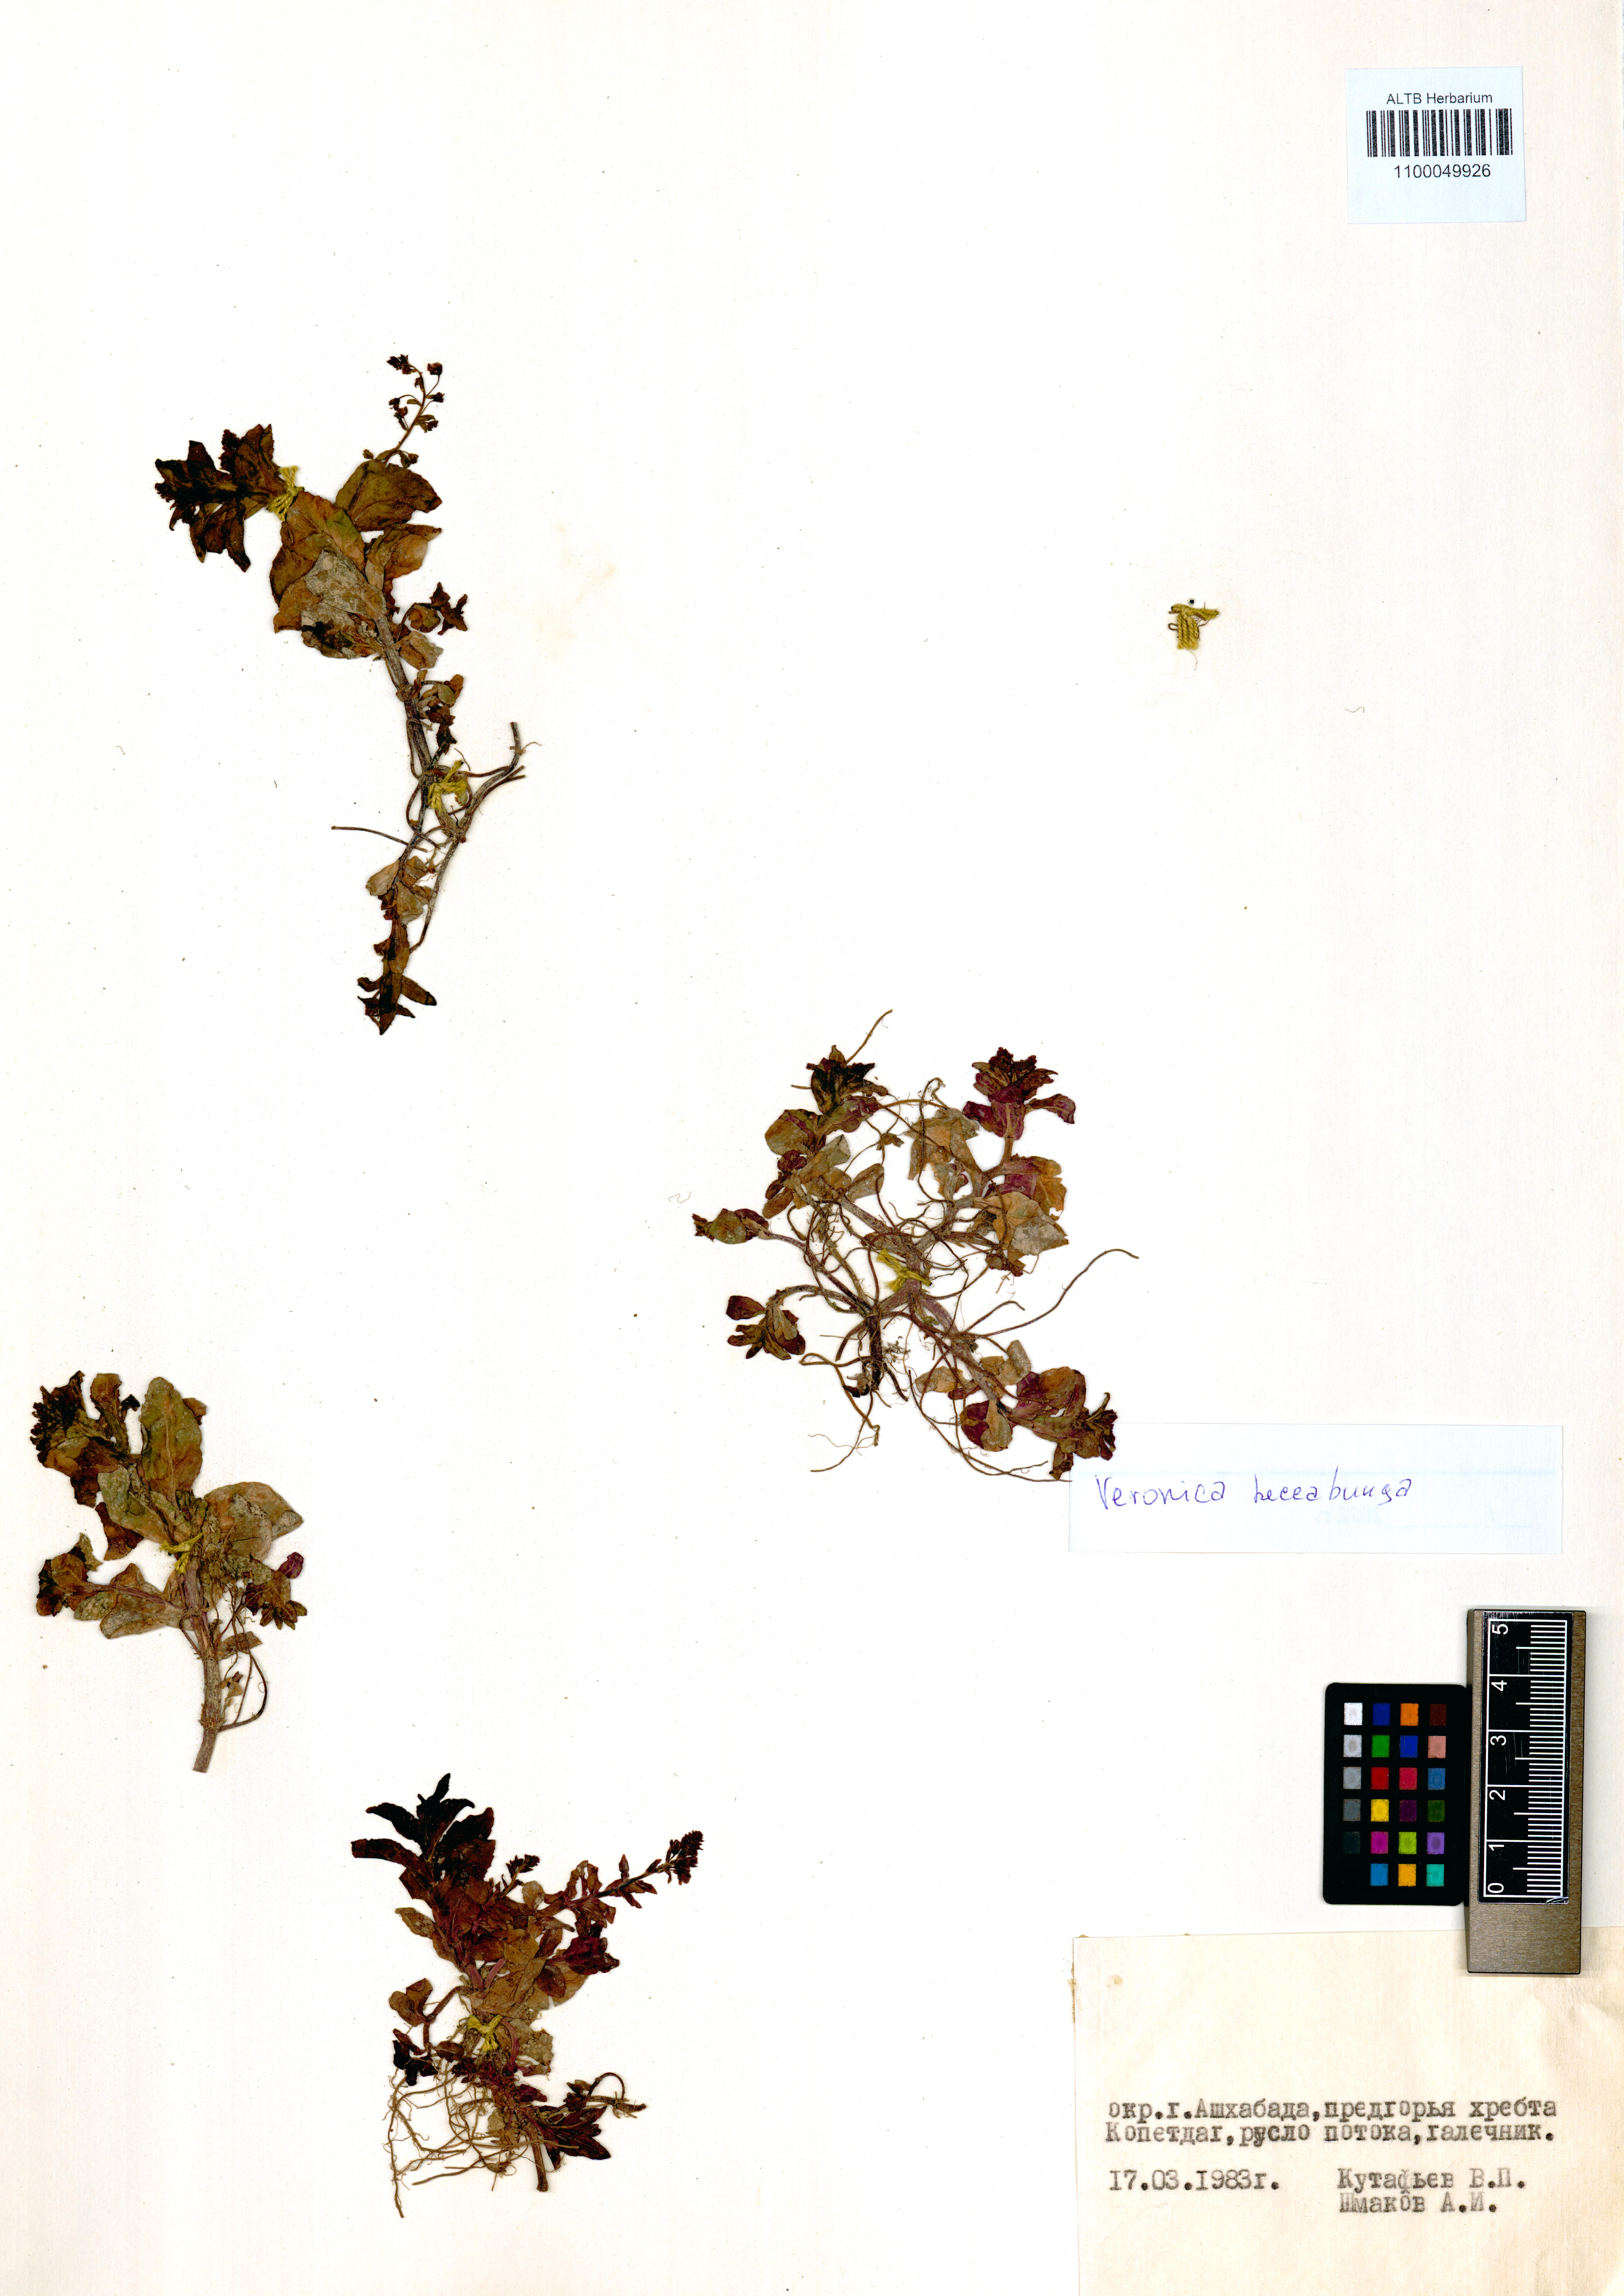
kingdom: Plantae
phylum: Tracheophyta
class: Magnoliopsida
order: Lamiales
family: Plantaginaceae
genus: Veronica
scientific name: Veronica beccabunga
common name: Brooklime
